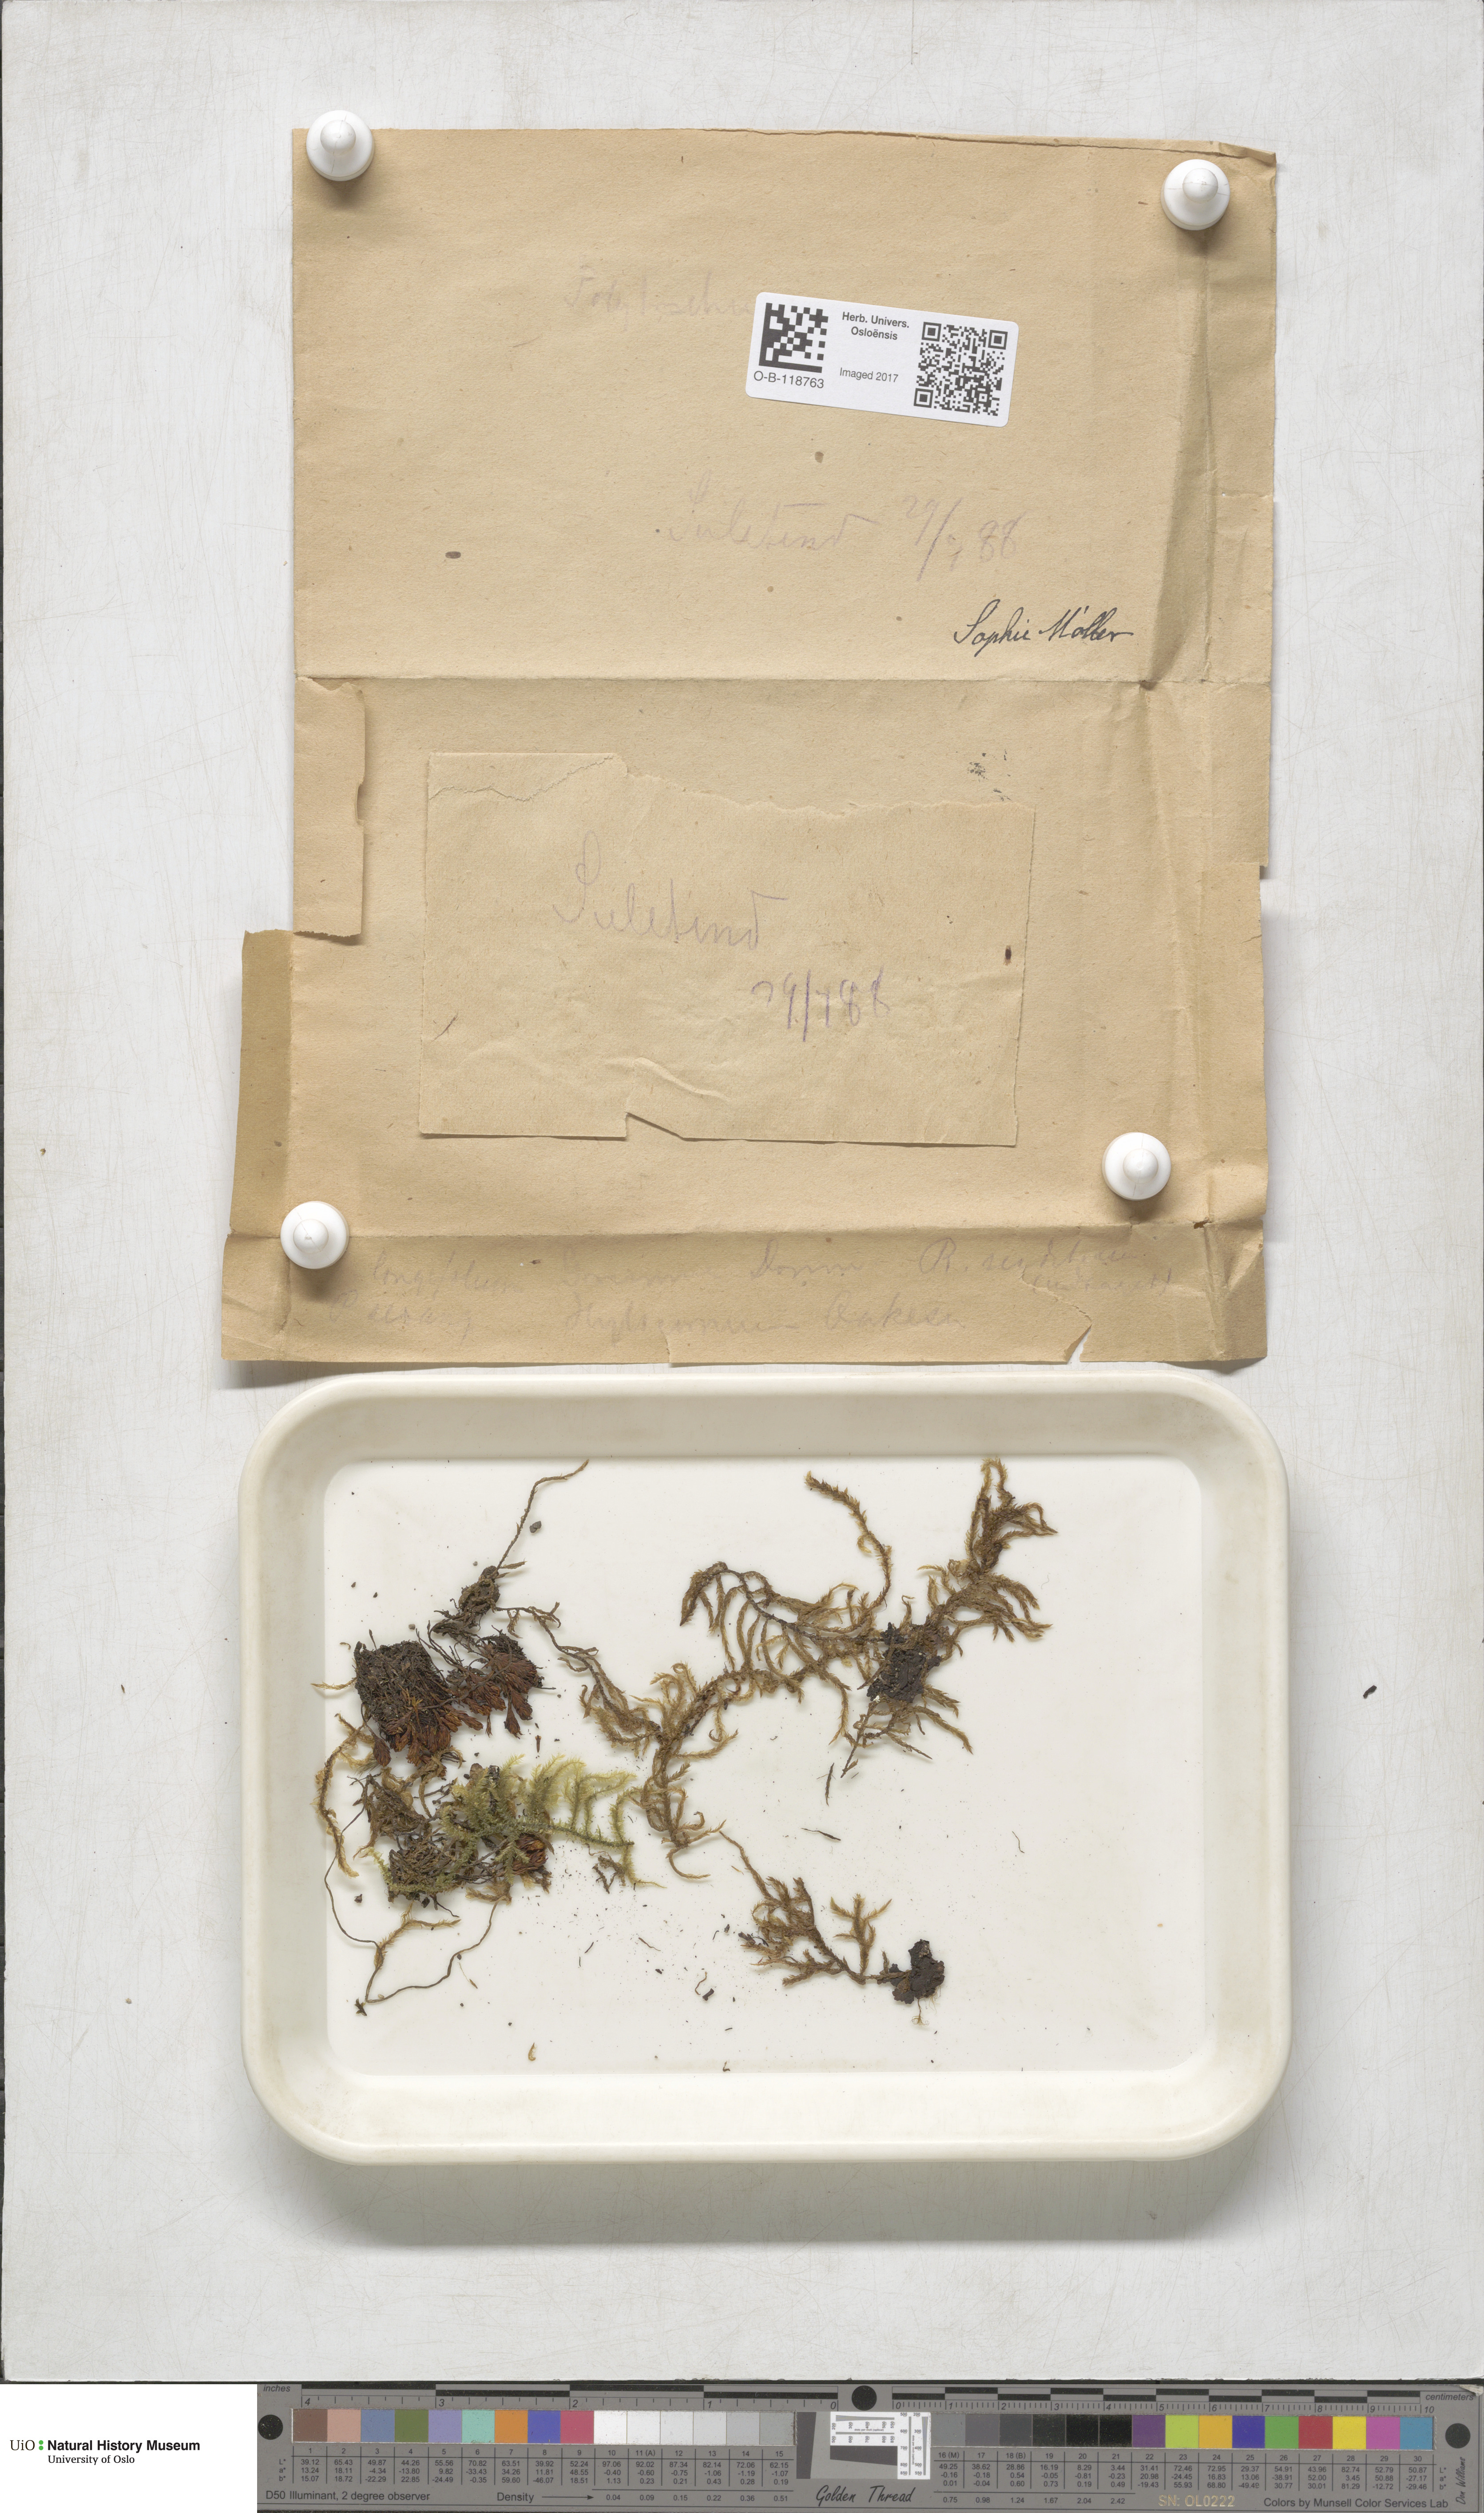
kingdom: Plantae
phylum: Bryophyta
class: Bryopsida
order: Hypnales
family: Hylocomiaceae
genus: Hylocomiastrum
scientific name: Hylocomiastrum pyrenaicum
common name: Oake s wood moss
